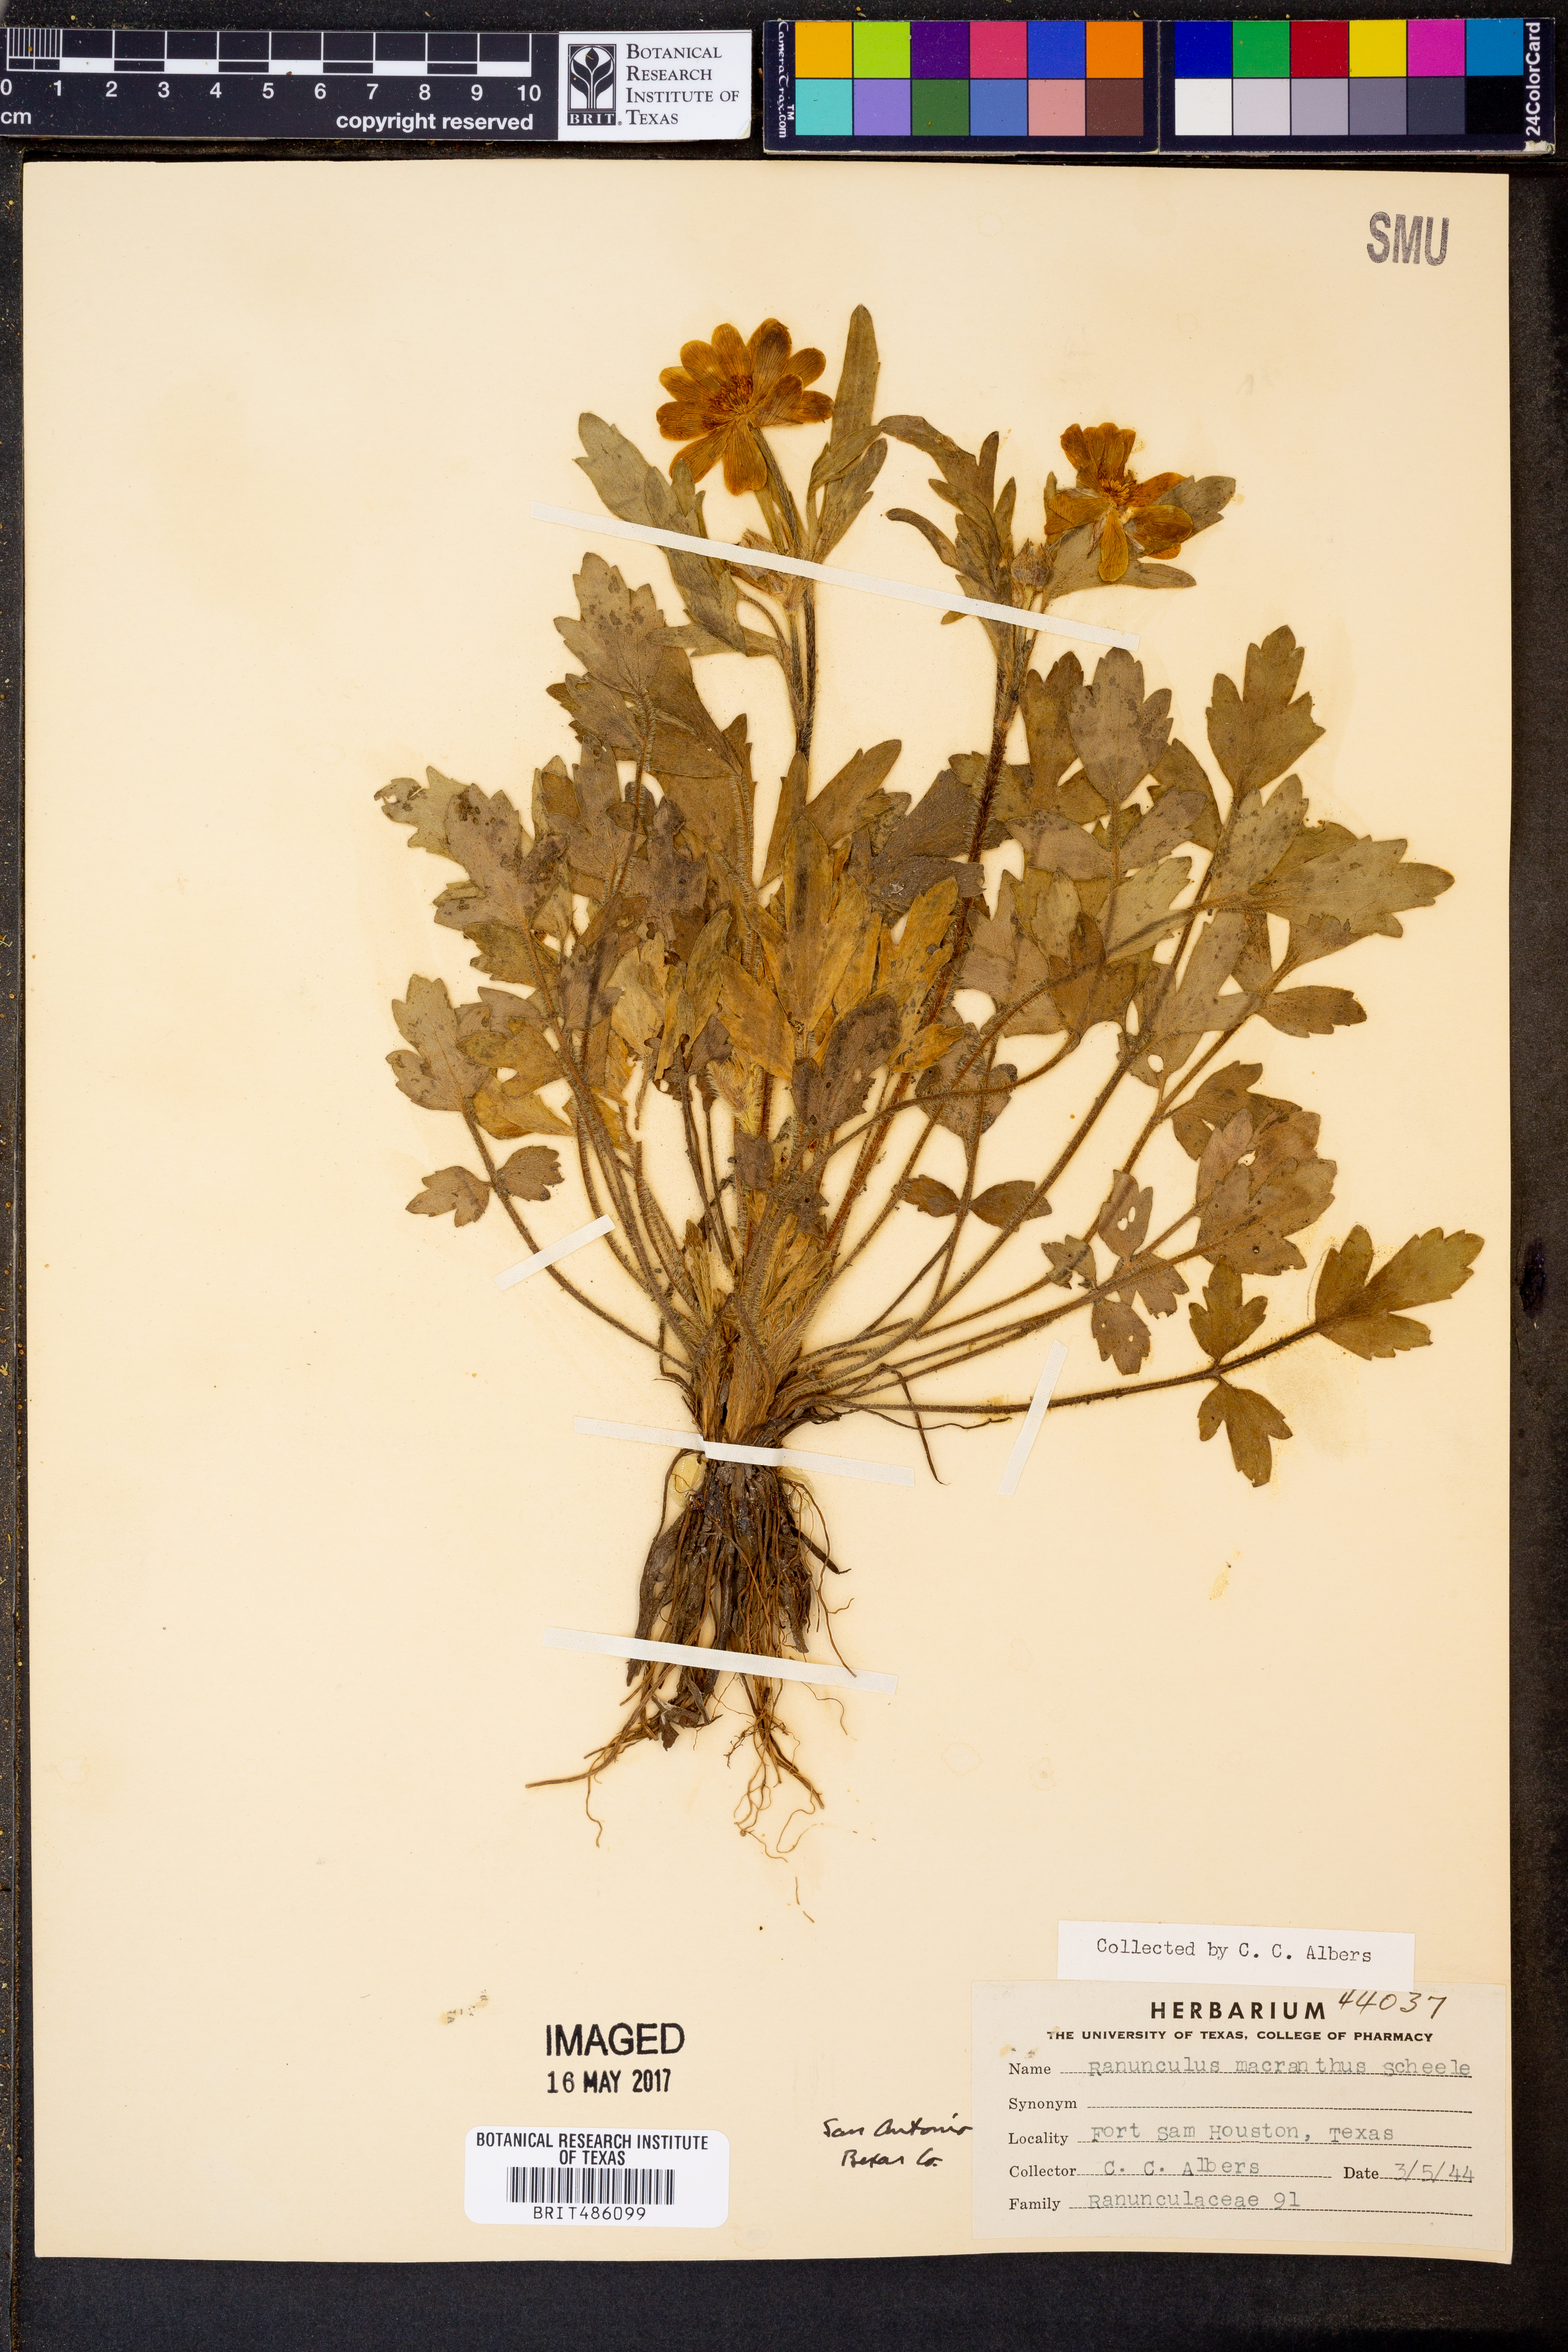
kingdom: Plantae
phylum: Tracheophyta
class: Magnoliopsida
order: Ranunculales
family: Ranunculaceae
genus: Ranunculus
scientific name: Ranunculus macranthus
